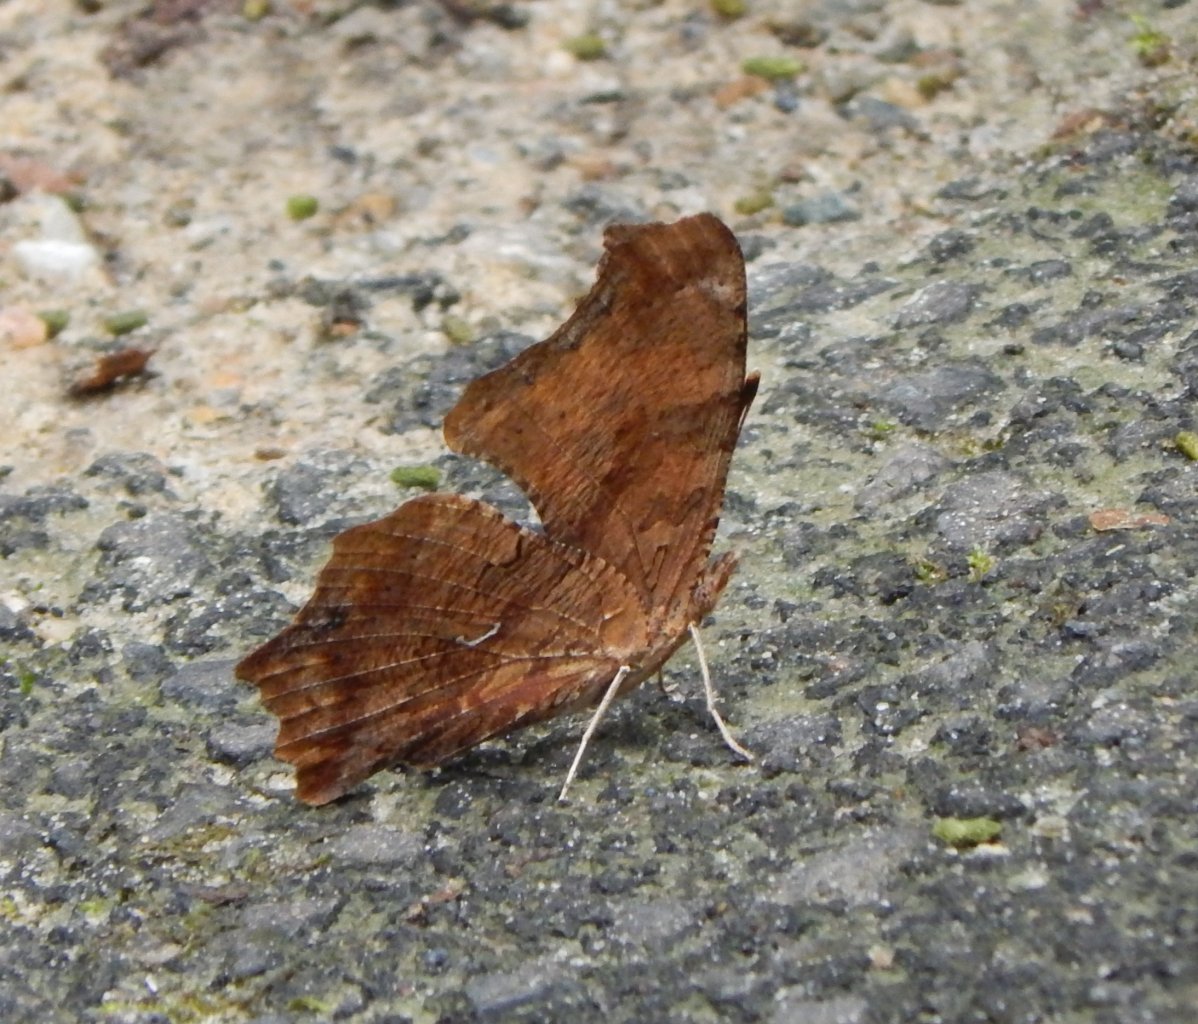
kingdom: Animalia
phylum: Arthropoda
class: Insecta
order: Lepidoptera
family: Nymphalidae
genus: Polygonia
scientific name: Polygonia comma
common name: Eastern Comma
